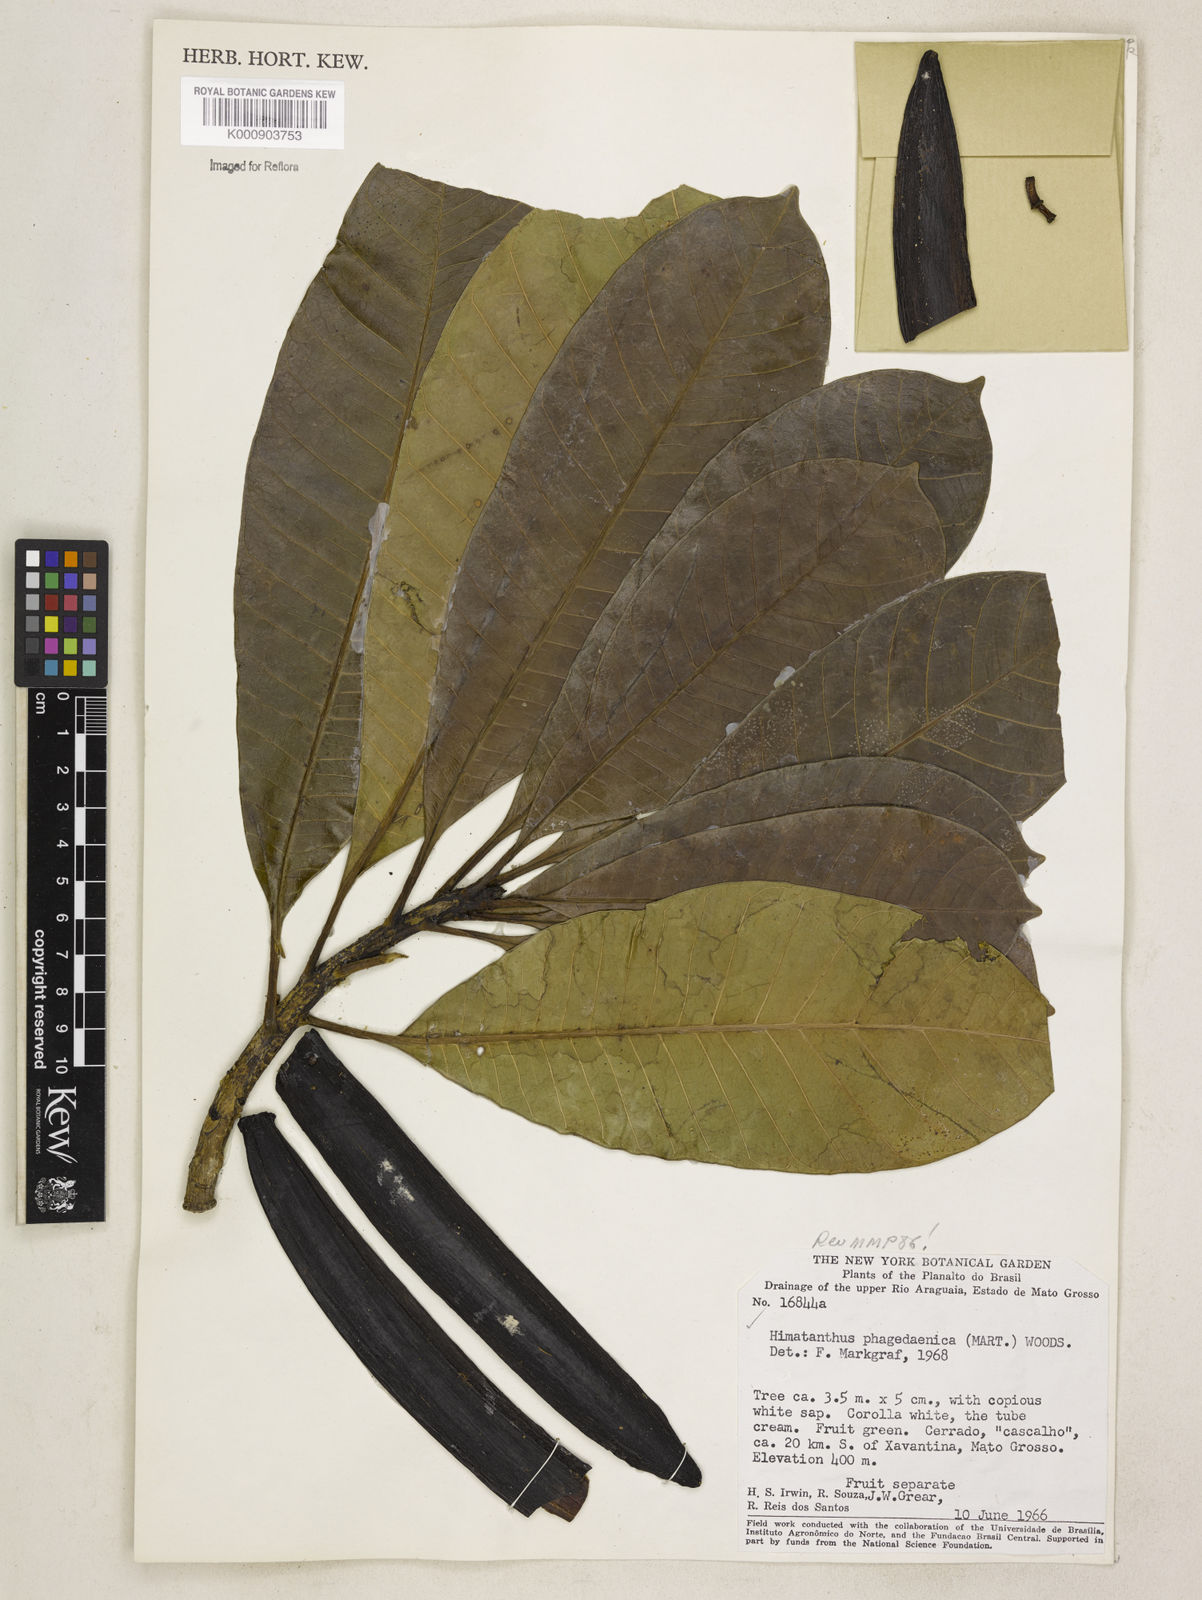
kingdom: Plantae
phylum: Tracheophyta
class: Magnoliopsida
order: Gentianales
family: Apocynaceae
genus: Himatanthus
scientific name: Himatanthus phagedaenicus
